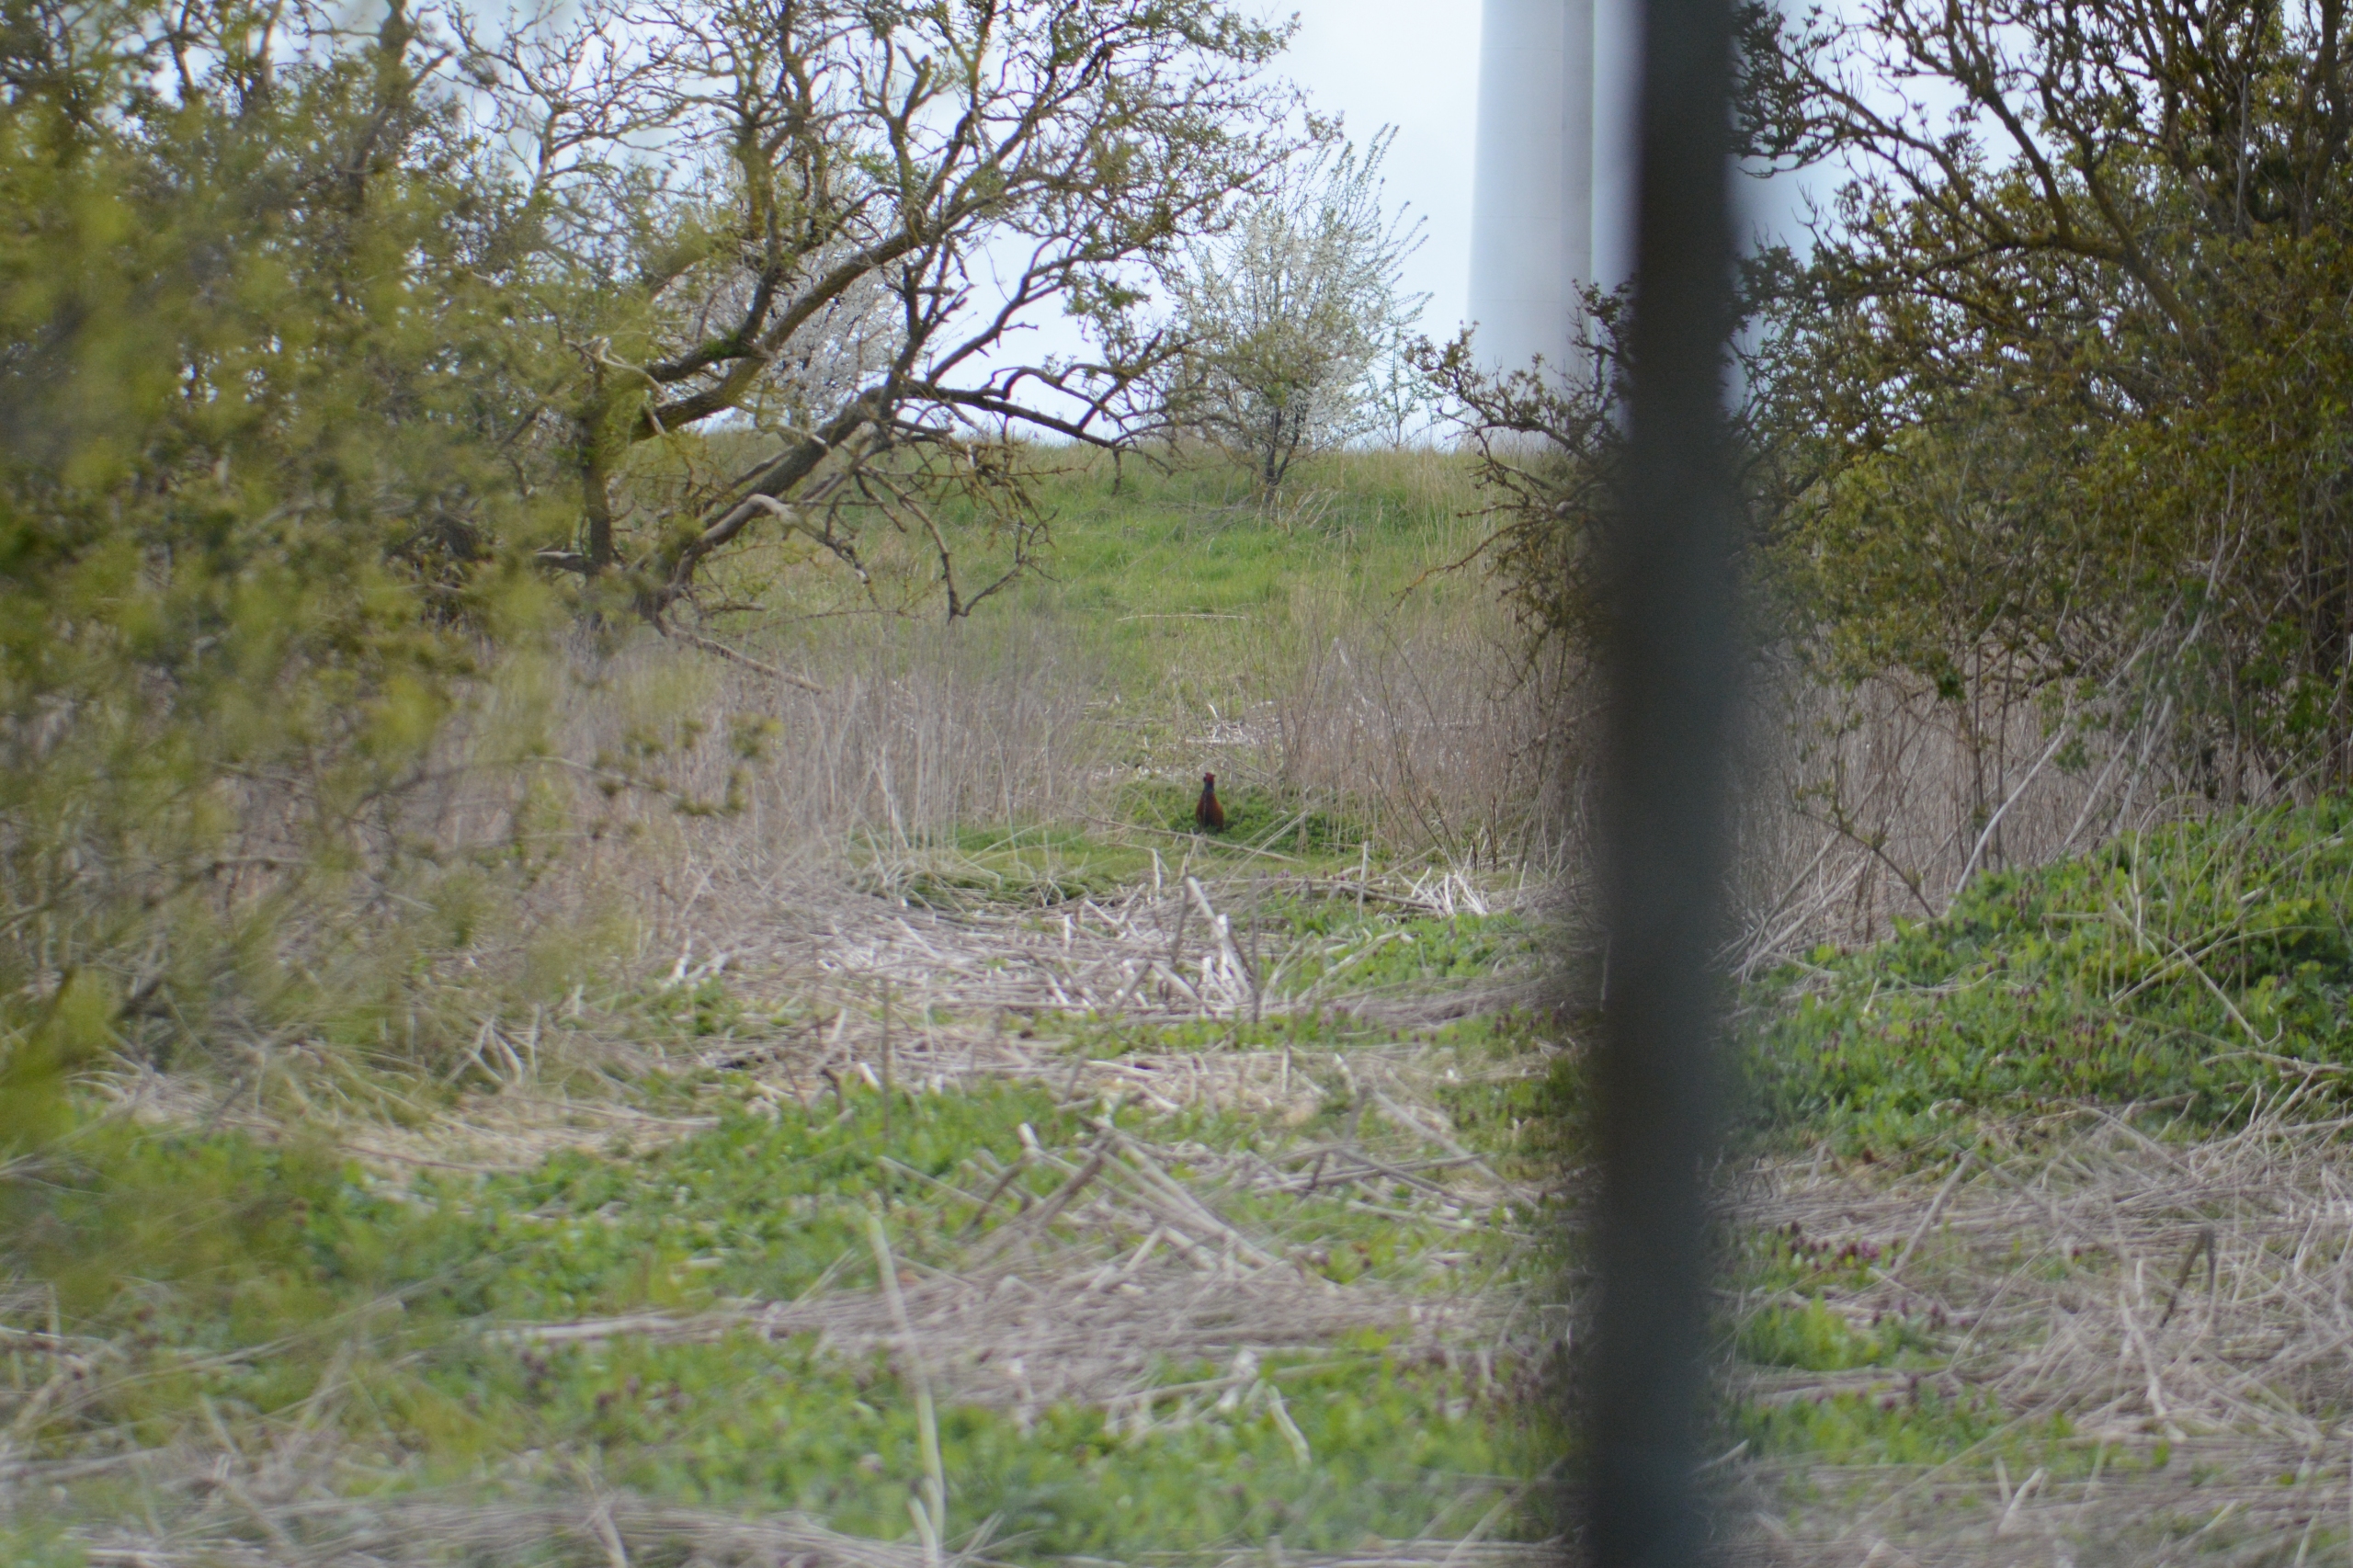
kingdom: Animalia
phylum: Chordata
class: Aves
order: Galliformes
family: Phasianidae
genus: Phasianus
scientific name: Phasianus colchicus
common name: Fasan
